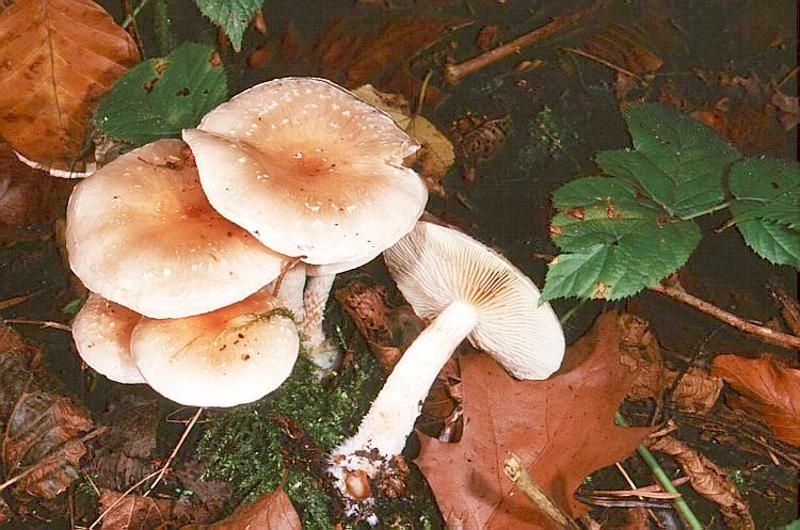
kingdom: Fungi
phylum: Basidiomycota
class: Agaricomycetes
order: Agaricales
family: Strophariaceae
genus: Pholiota
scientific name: Pholiota lenta
